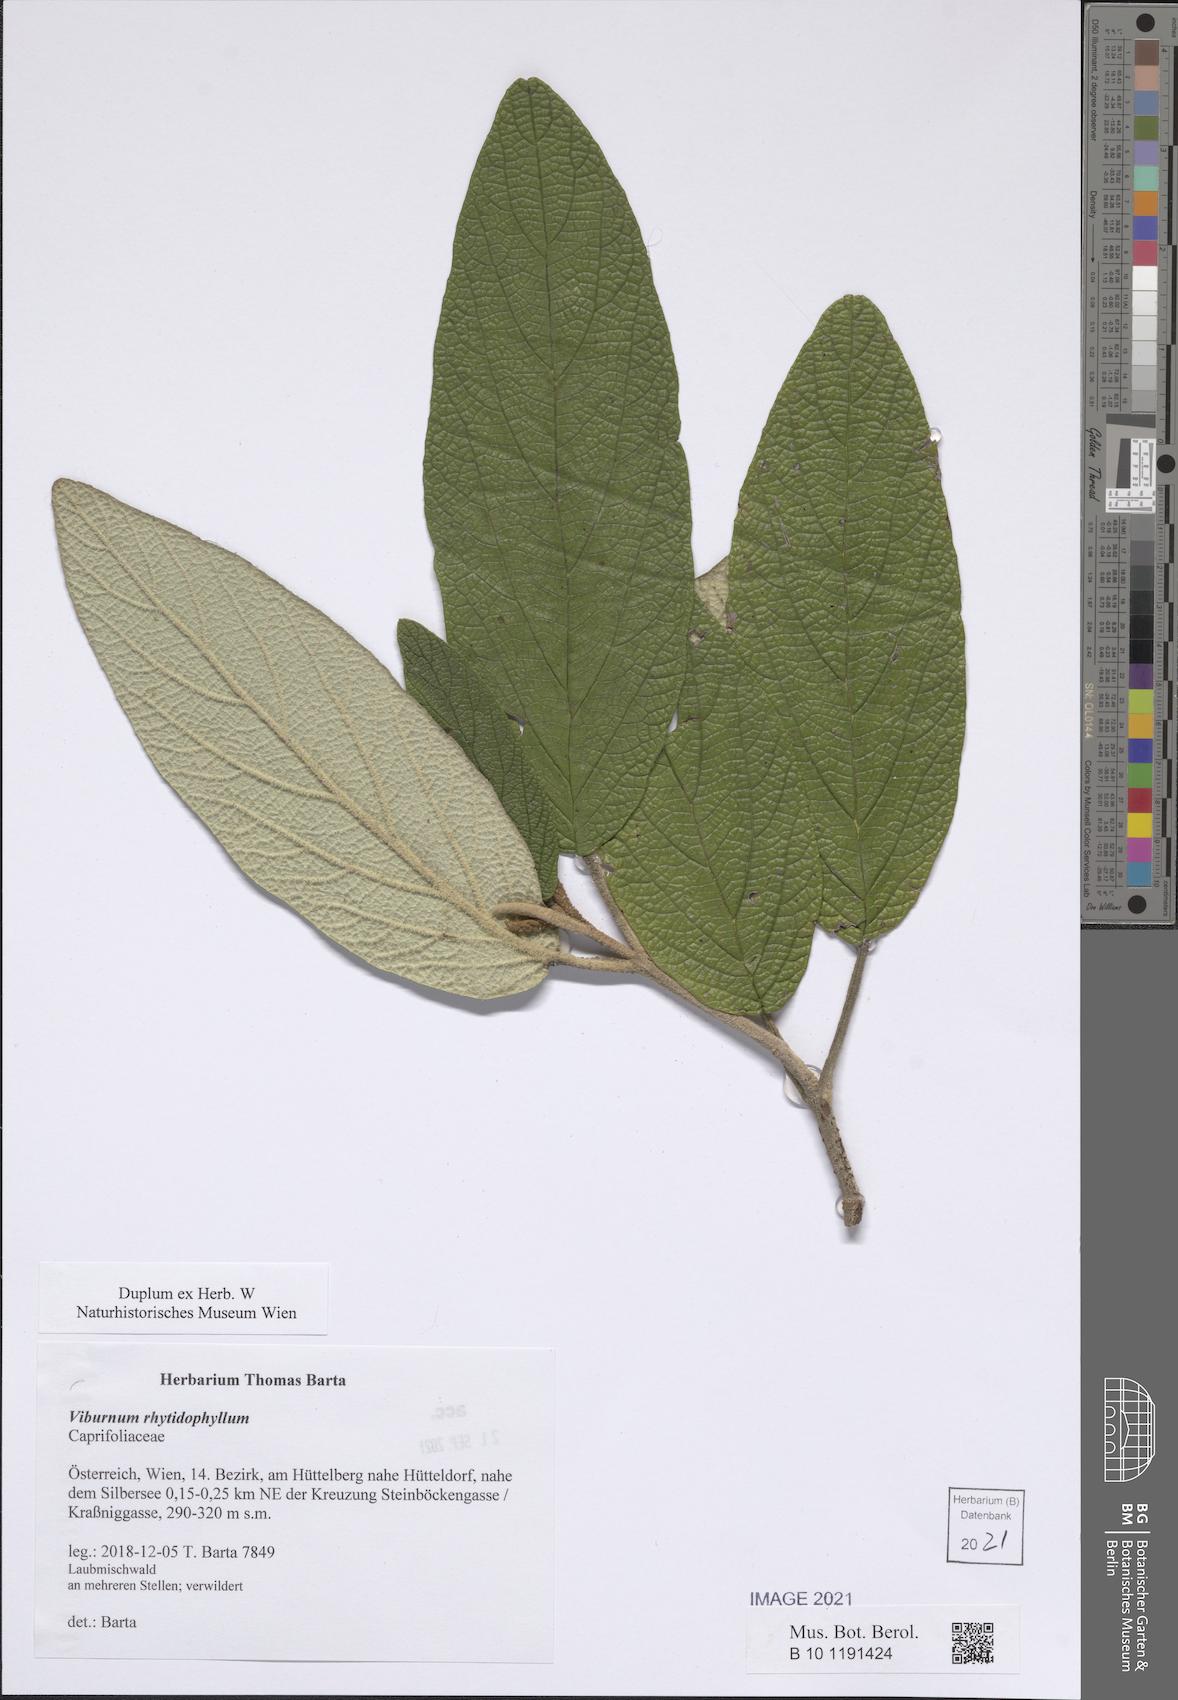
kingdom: Plantae
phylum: Tracheophyta
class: Magnoliopsida
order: Dipsacales
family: Viburnaceae
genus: Viburnum
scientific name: Viburnum rhytidophyllum
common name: Wrinkled viburnum
